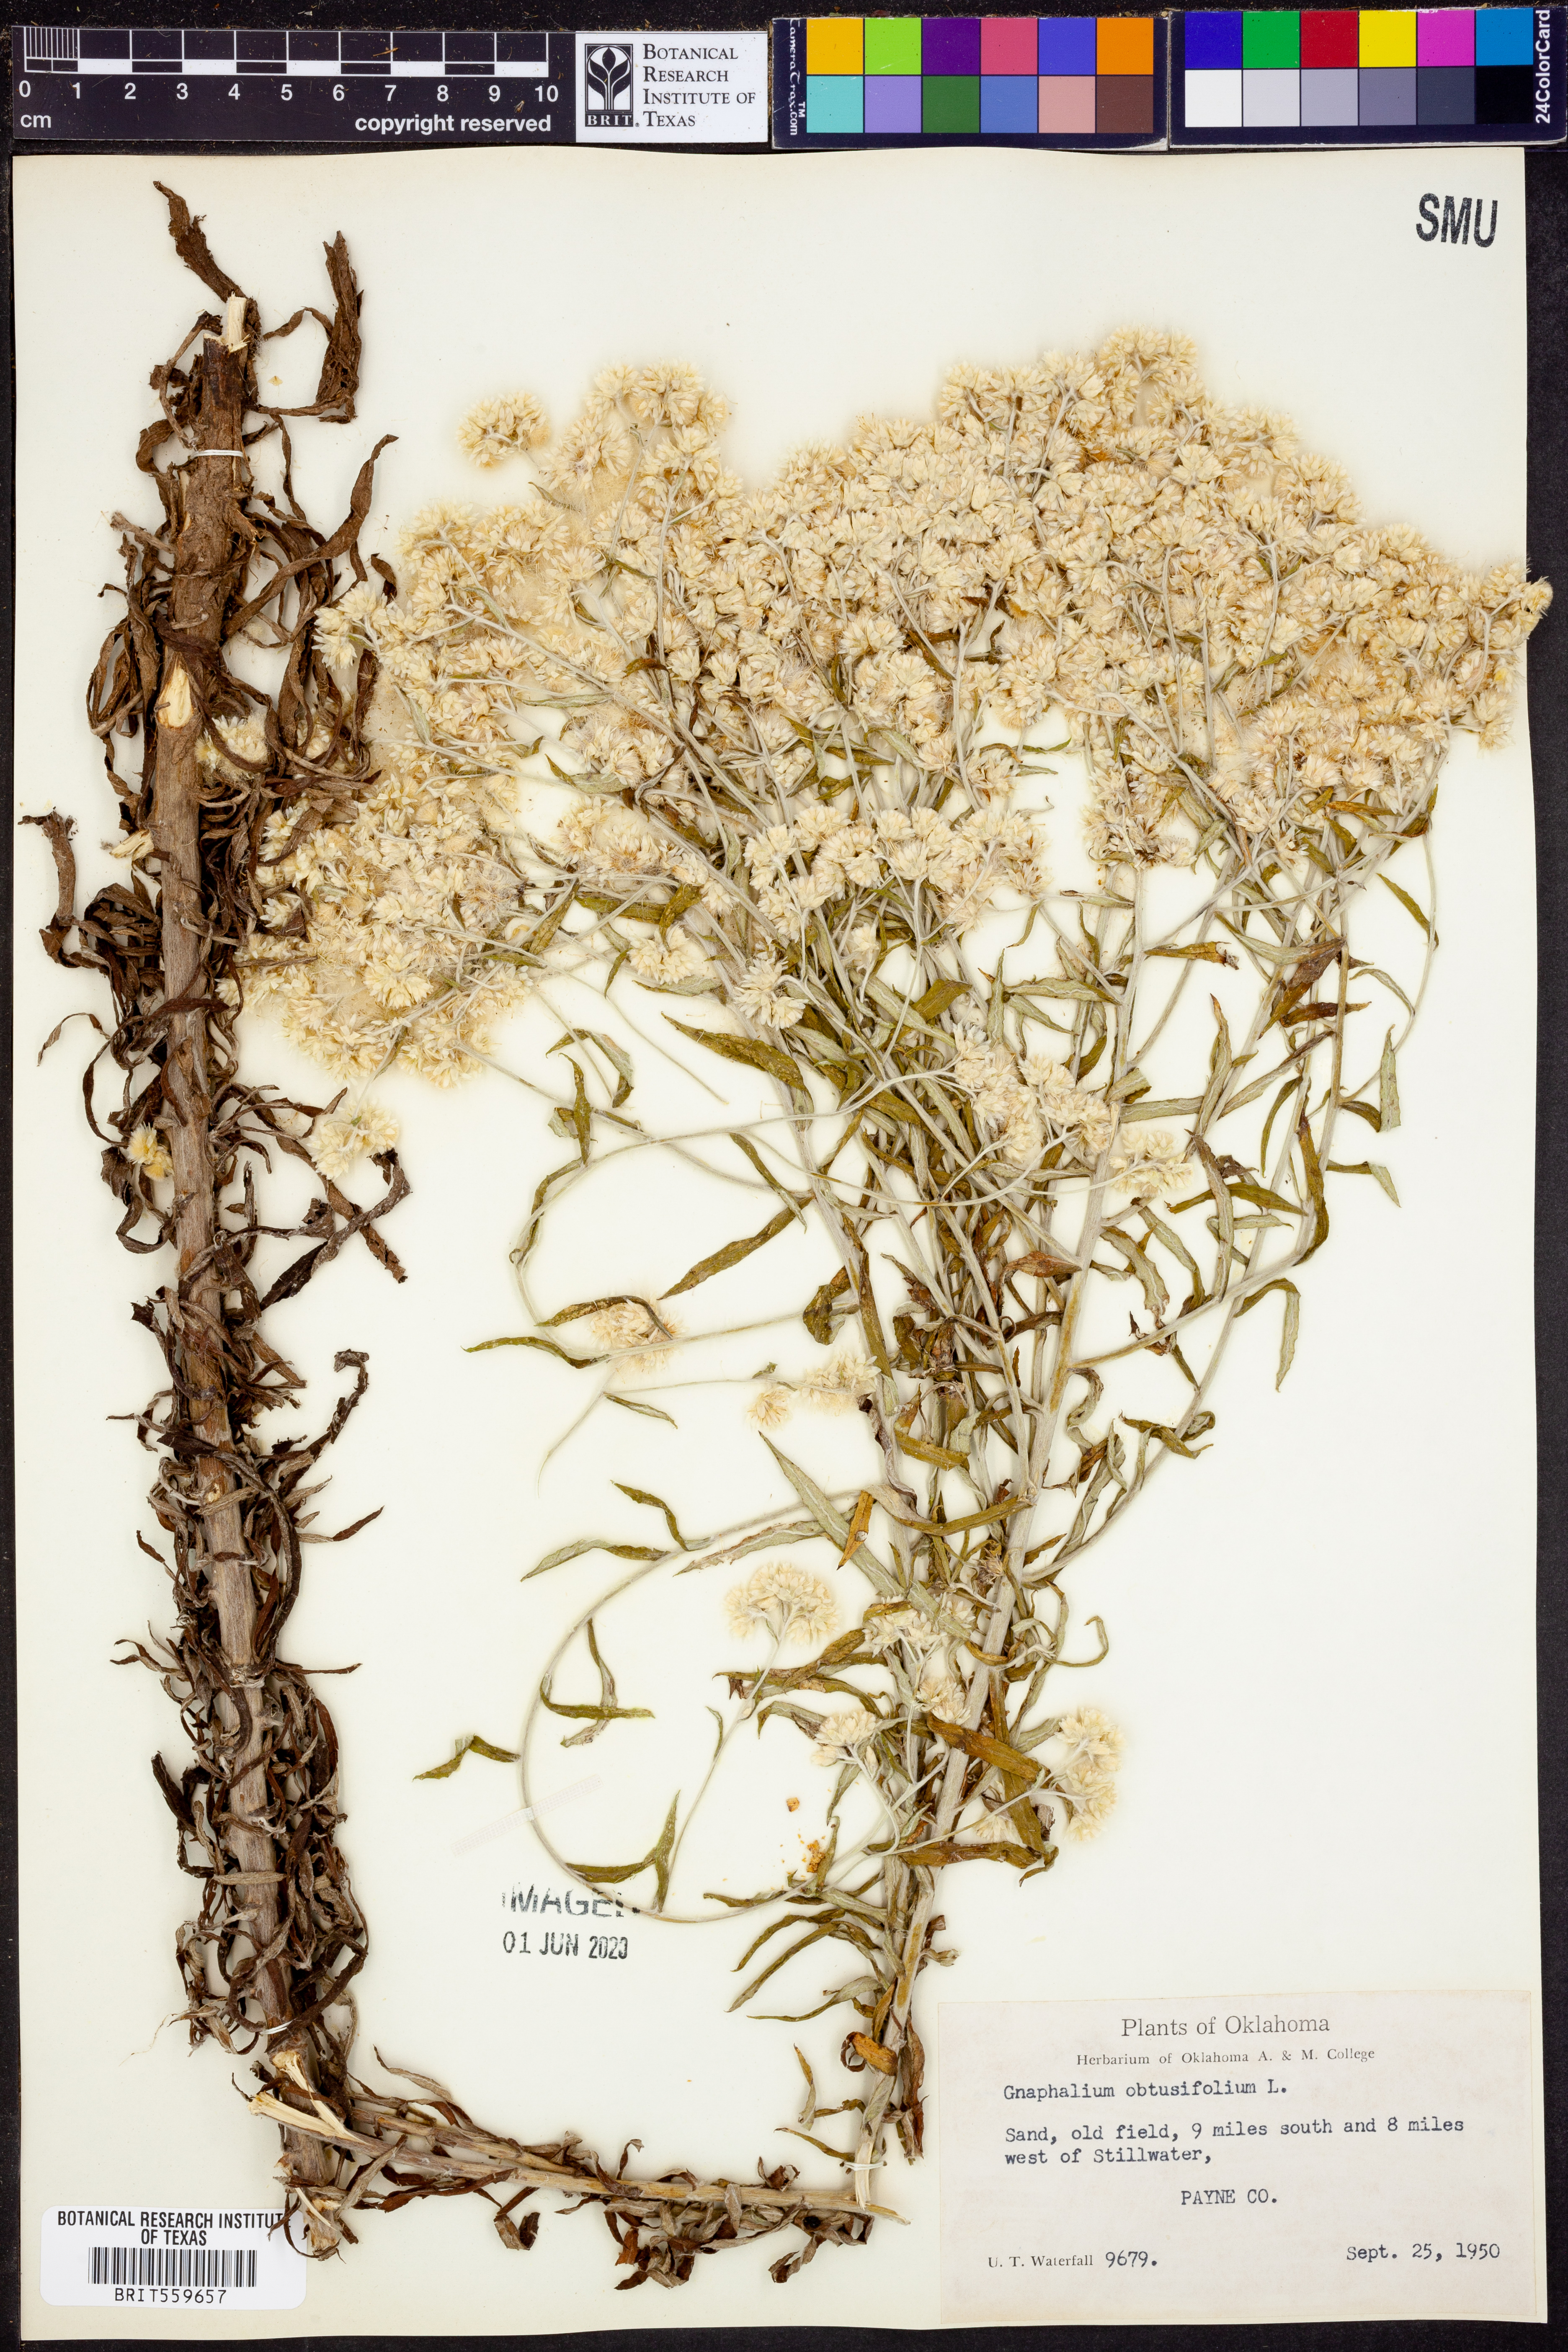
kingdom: Plantae
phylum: Tracheophyta
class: Magnoliopsida
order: Asterales
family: Asteraceae
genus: Pseudognaphalium
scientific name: Pseudognaphalium obtusifolium
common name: Eastern rabbit-tobacco
